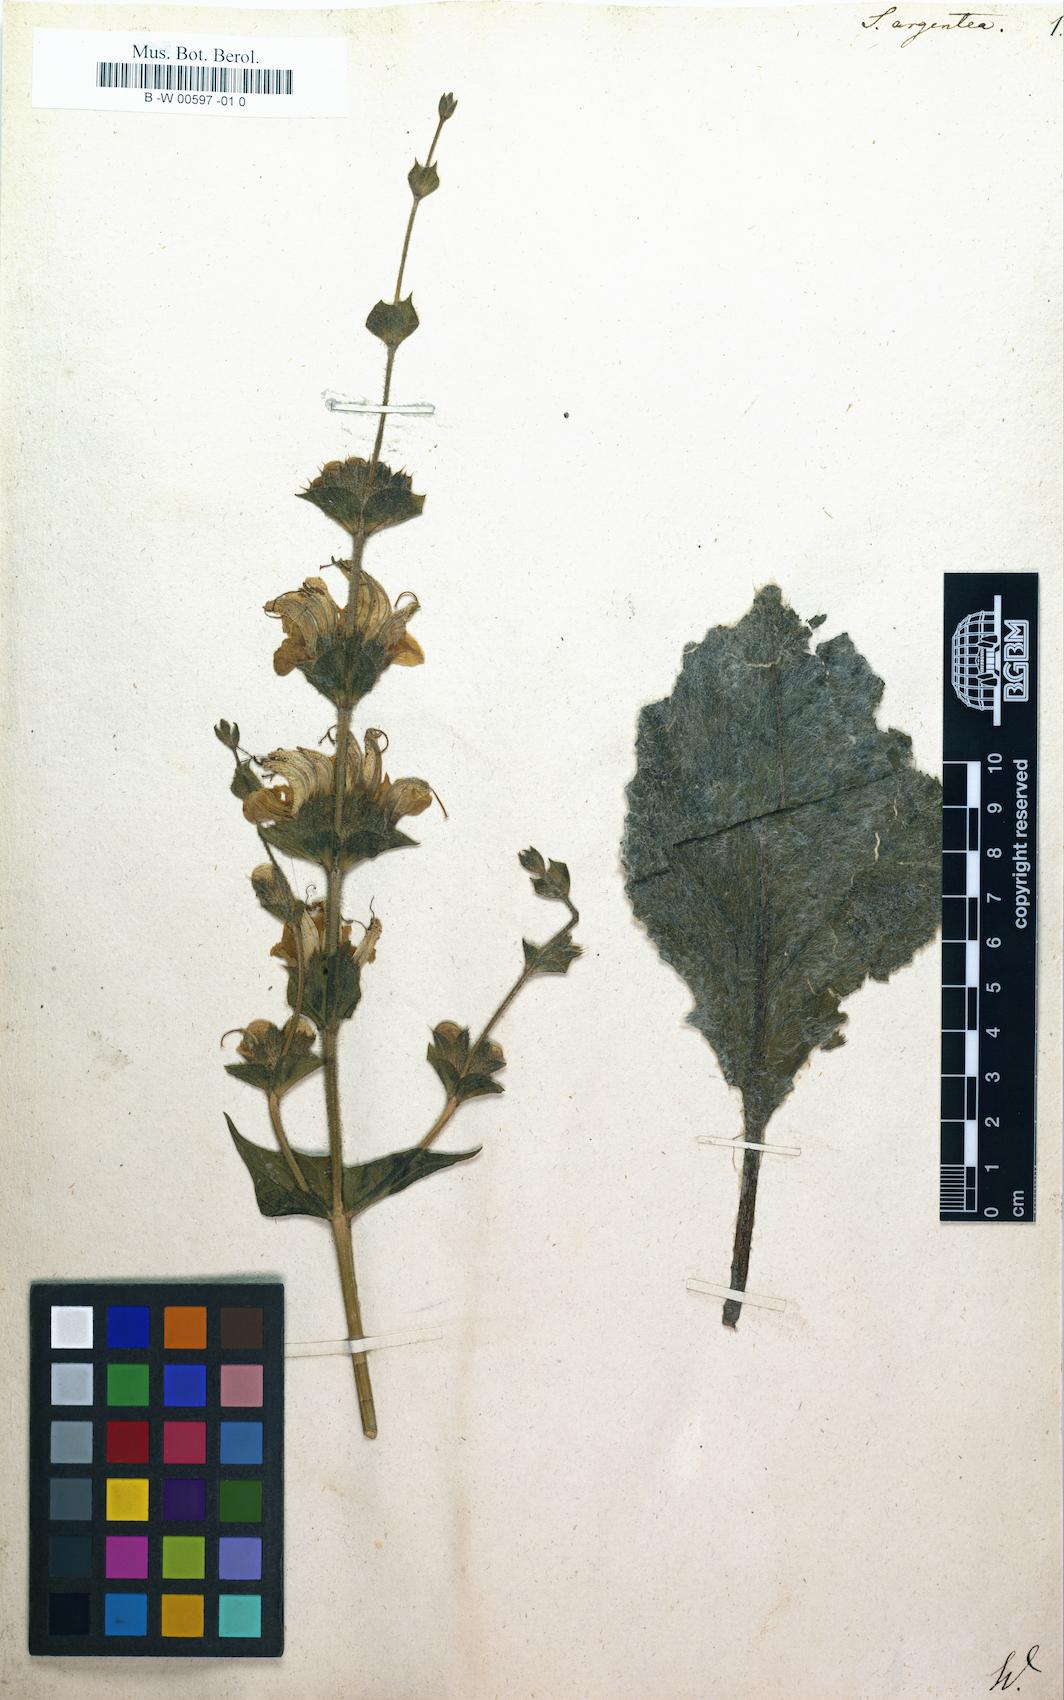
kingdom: Plantae
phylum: Tracheophyta
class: Magnoliopsida
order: Lamiales
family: Lamiaceae
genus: Salvia
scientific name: Salvia argentea
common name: Silver sage
